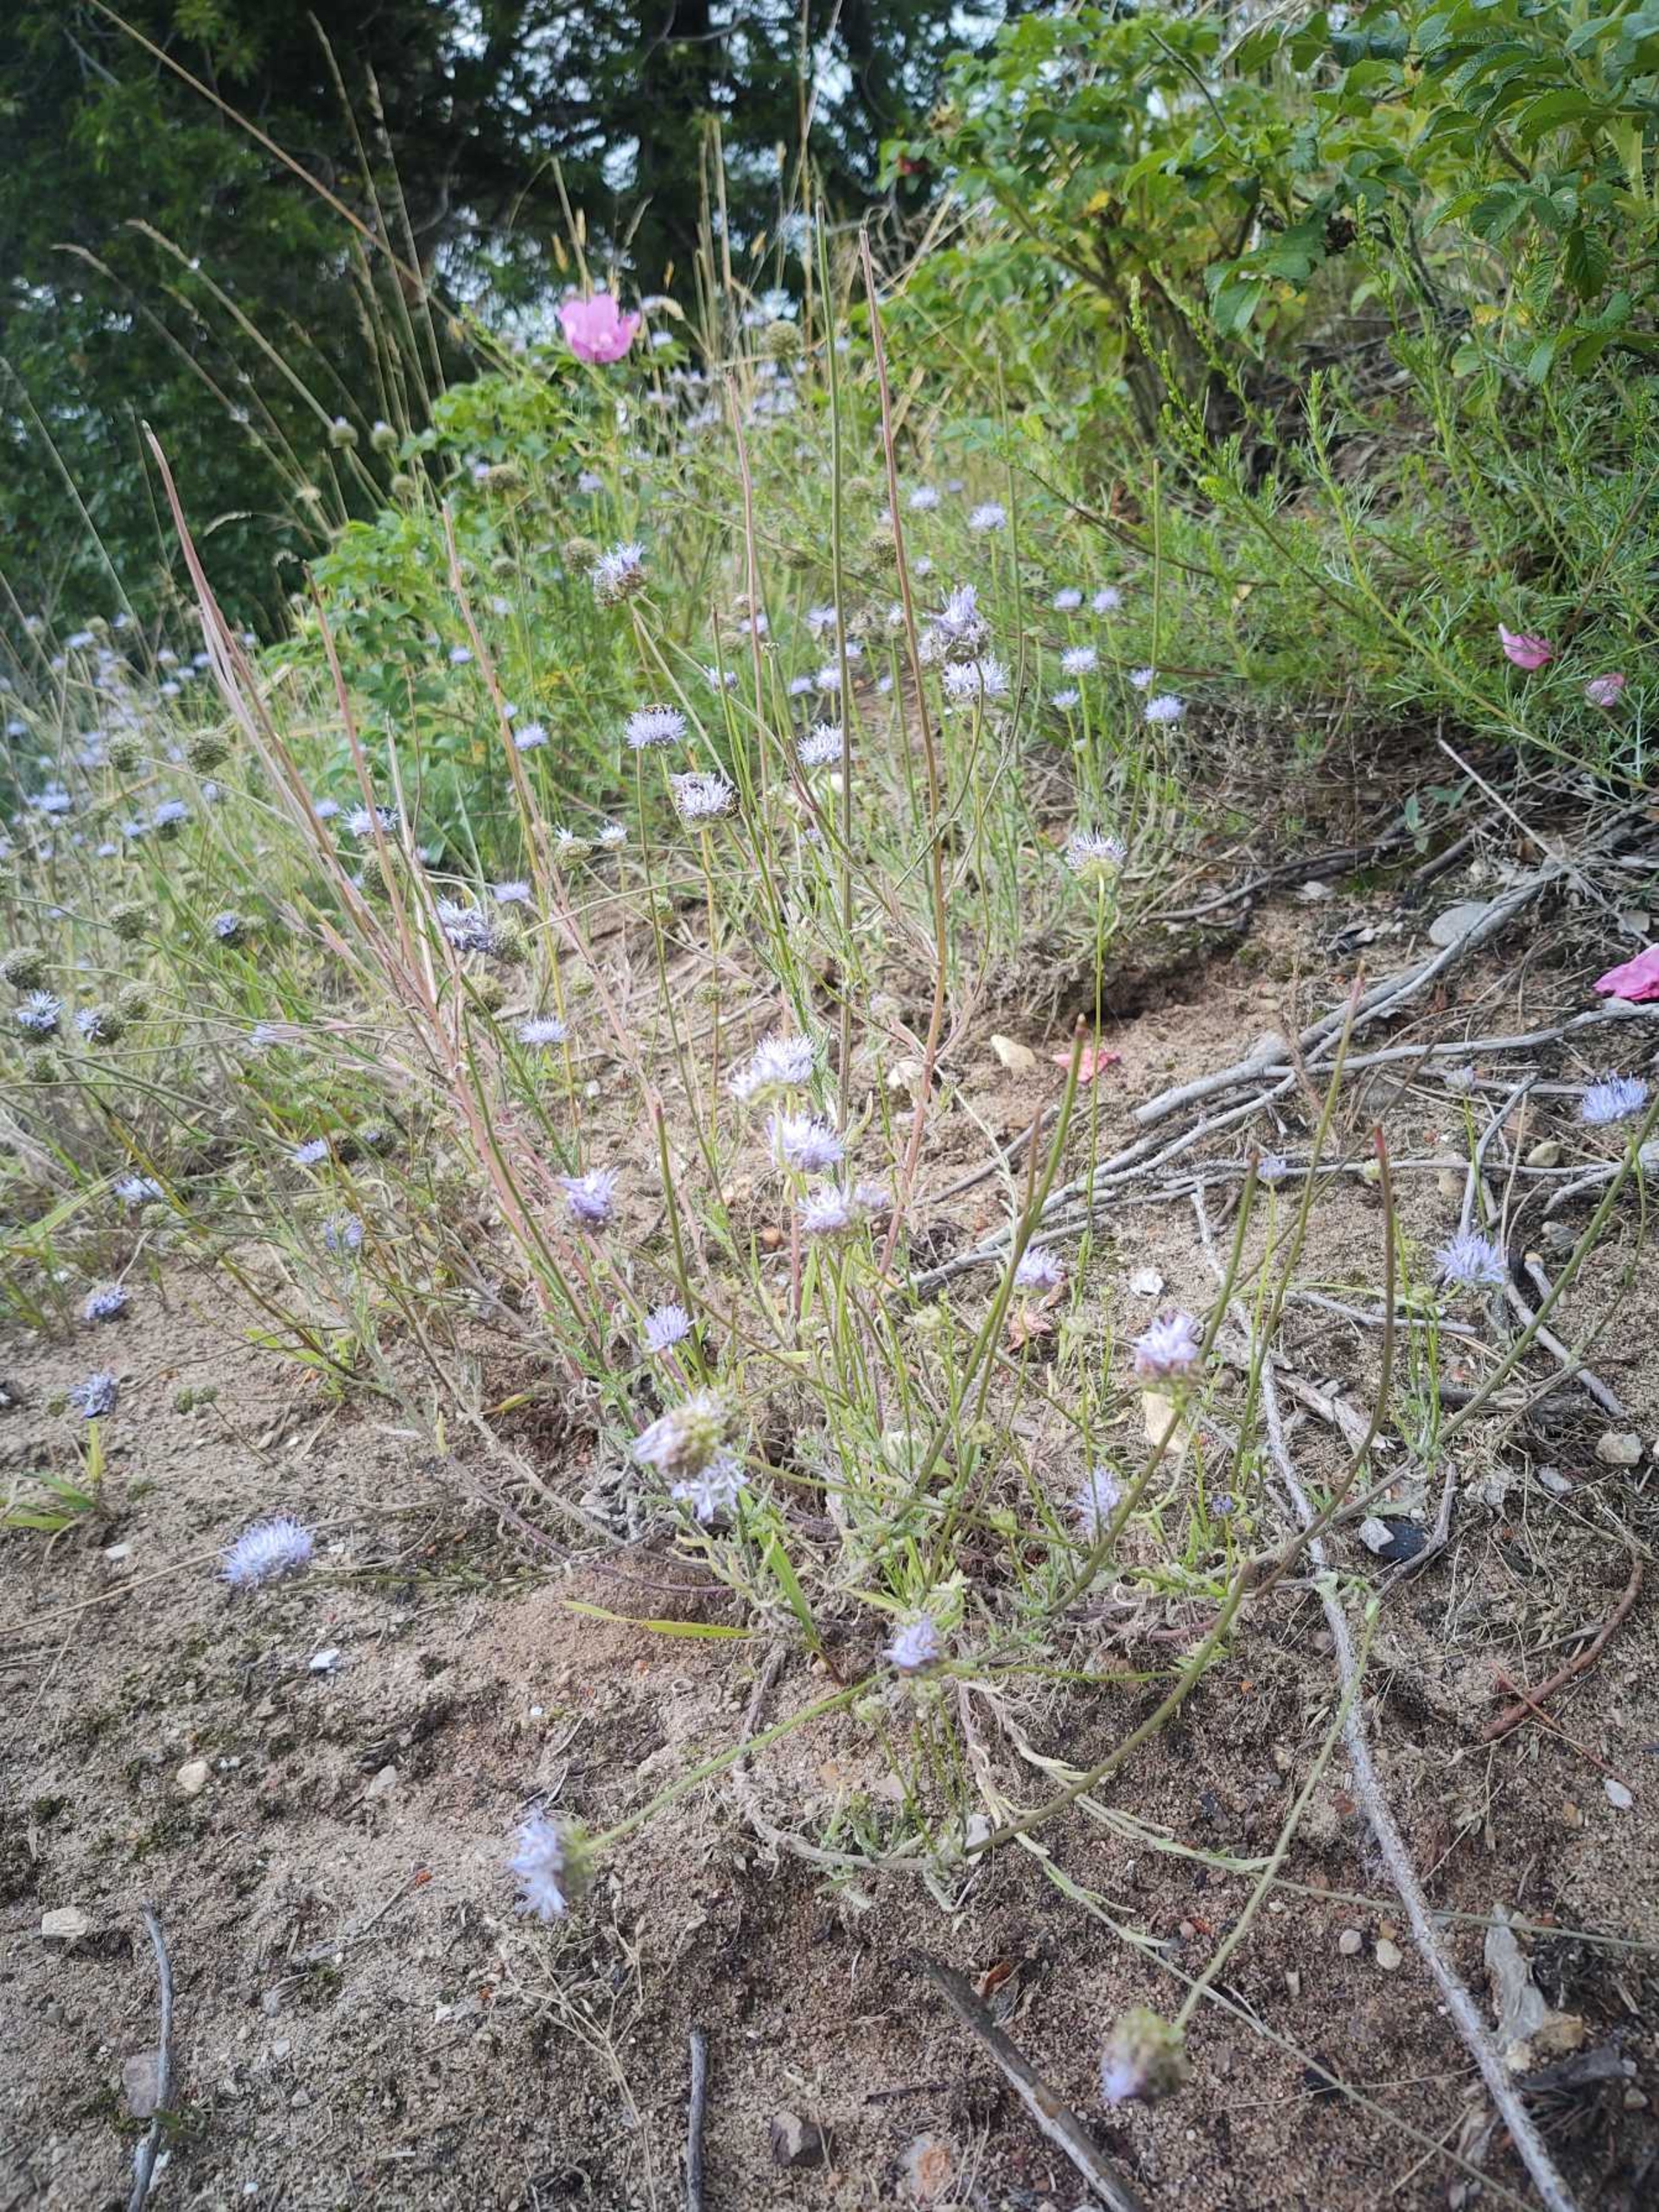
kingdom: Plantae
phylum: Tracheophyta
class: Magnoliopsida
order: Asterales
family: Campanulaceae
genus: Jasione
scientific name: Jasione montana
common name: Blåmunke
